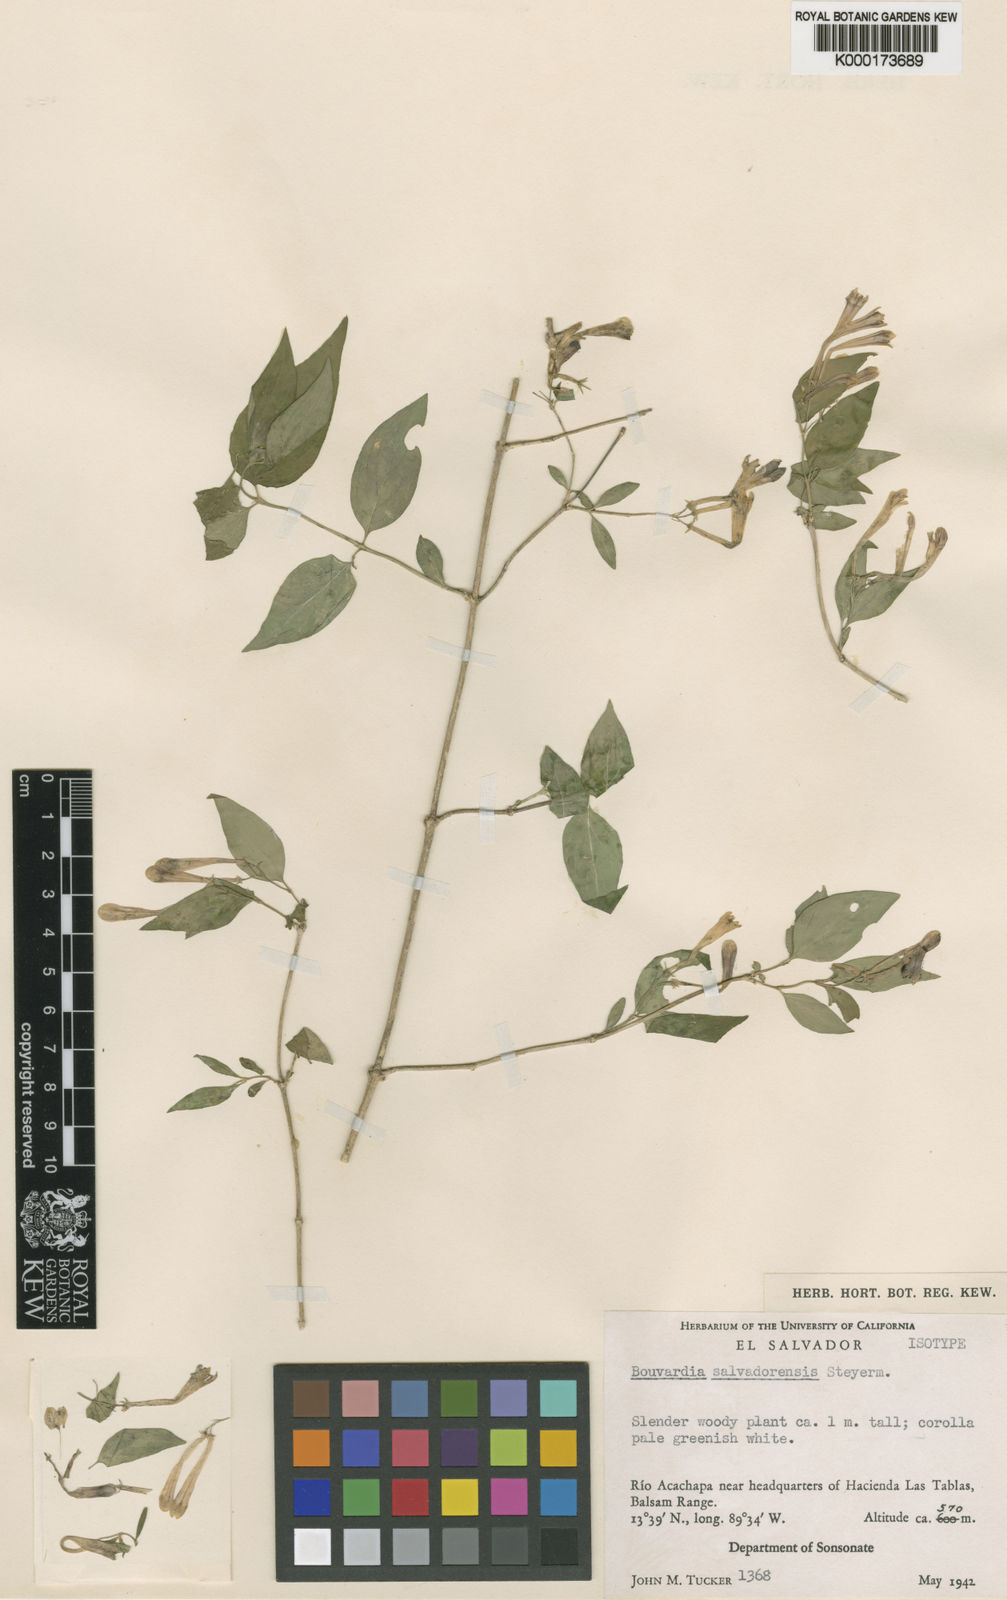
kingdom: Plantae
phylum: Tracheophyta
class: Magnoliopsida
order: Gentianales
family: Rubiaceae
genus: Bouvardia
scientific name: Bouvardia multiflora
